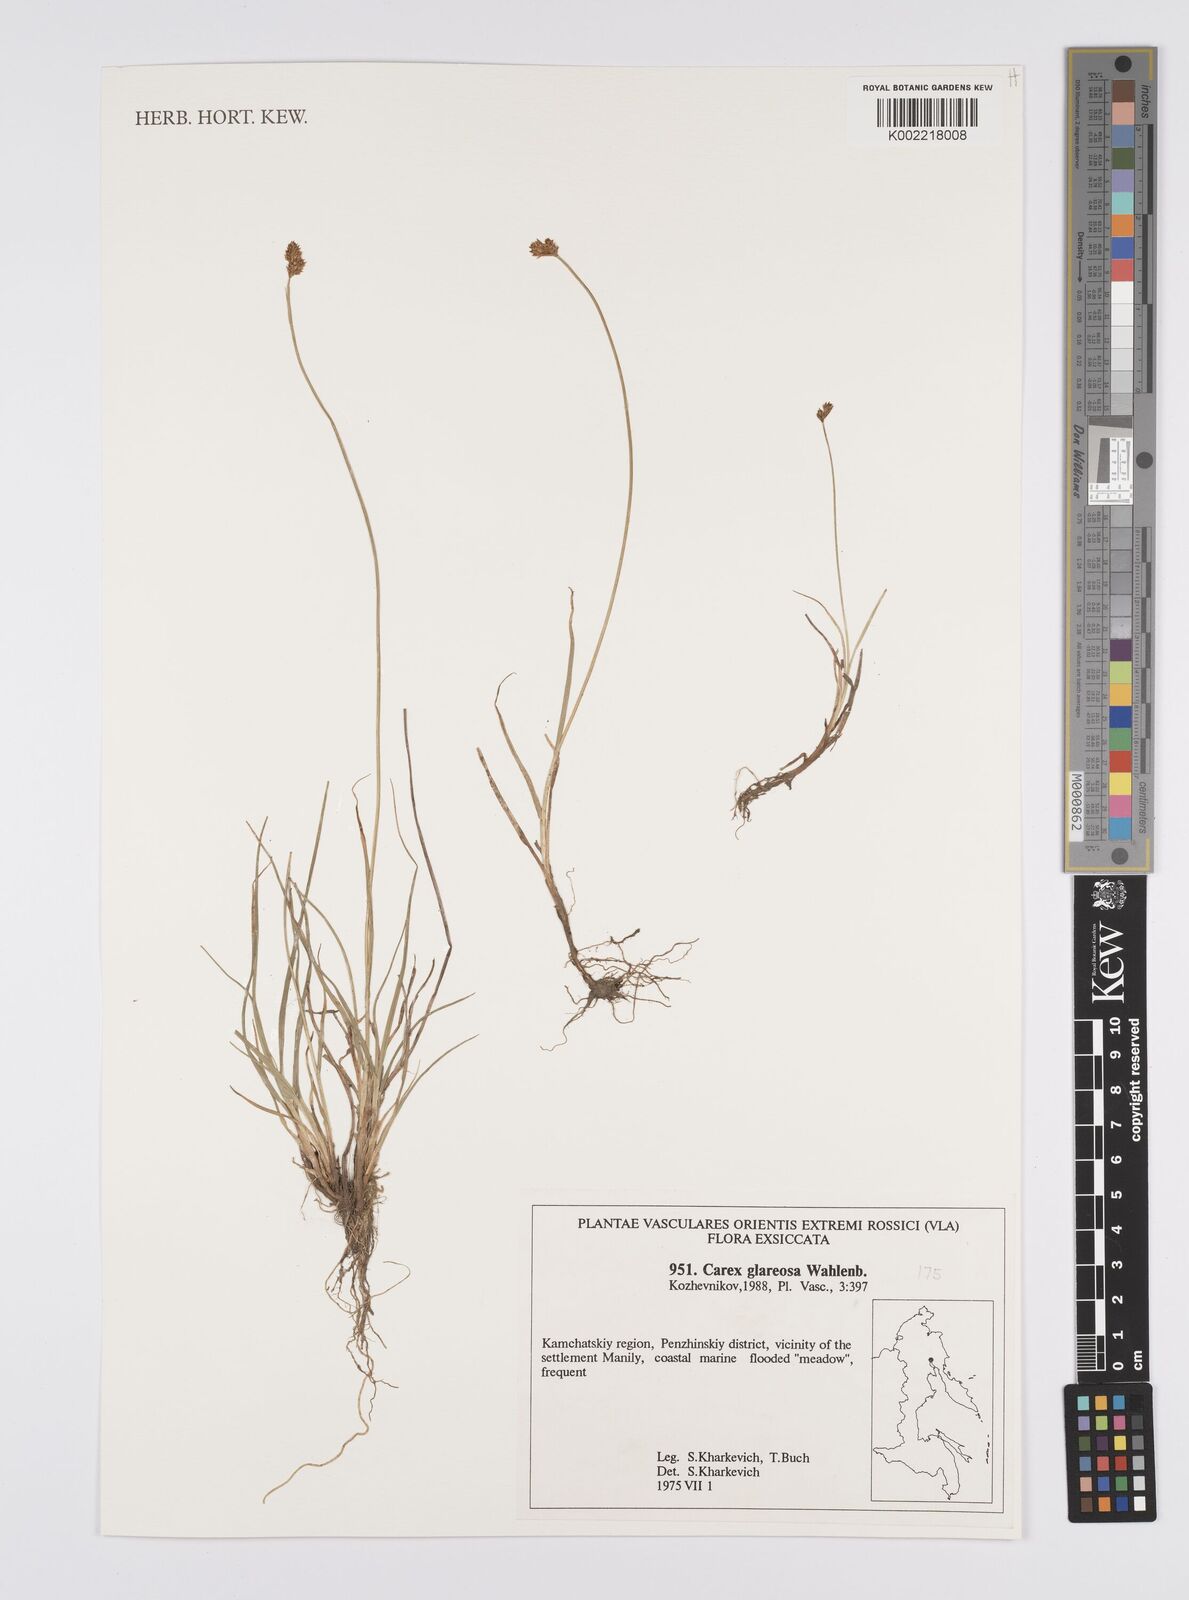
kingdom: Plantae
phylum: Tracheophyta
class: Liliopsida
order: Poales
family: Cyperaceae
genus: Carex
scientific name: Carex glareosa
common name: Clustered sedge
